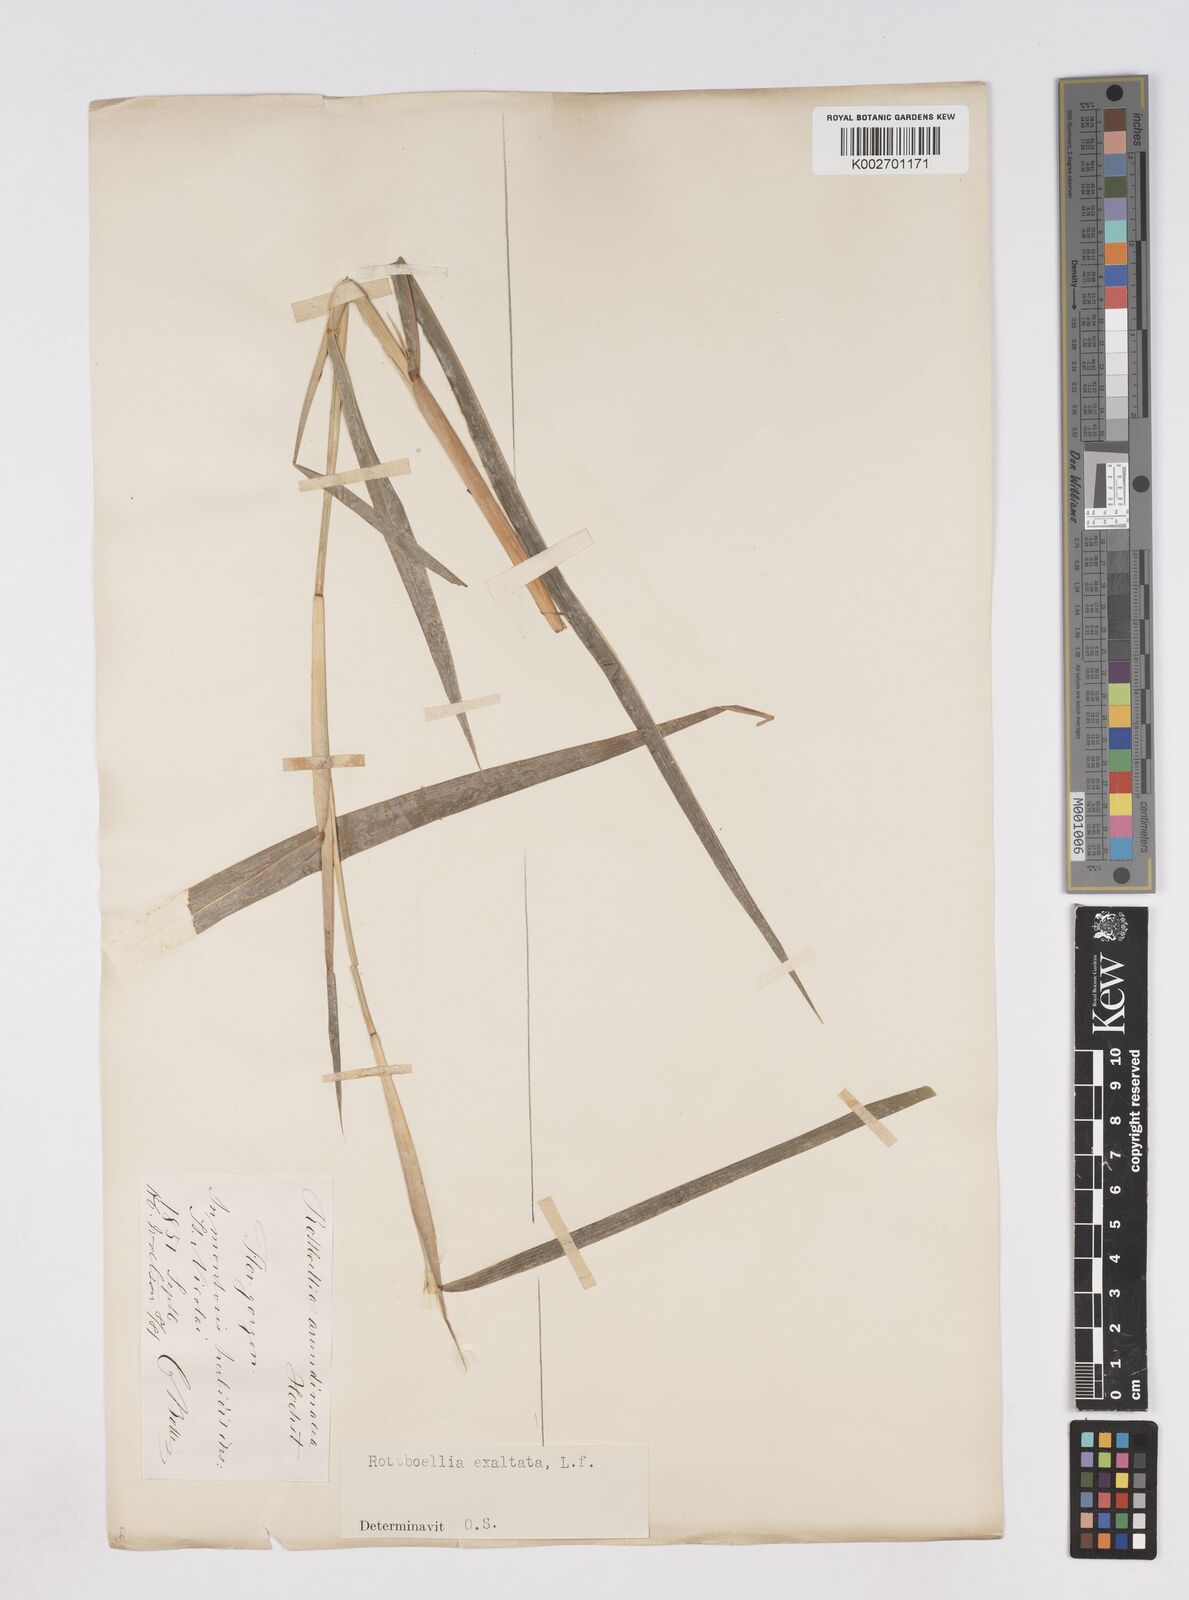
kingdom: Plantae
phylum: Tracheophyta
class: Liliopsida
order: Poales
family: Poaceae
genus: Ophiuros
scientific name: Ophiuros exaltatus
